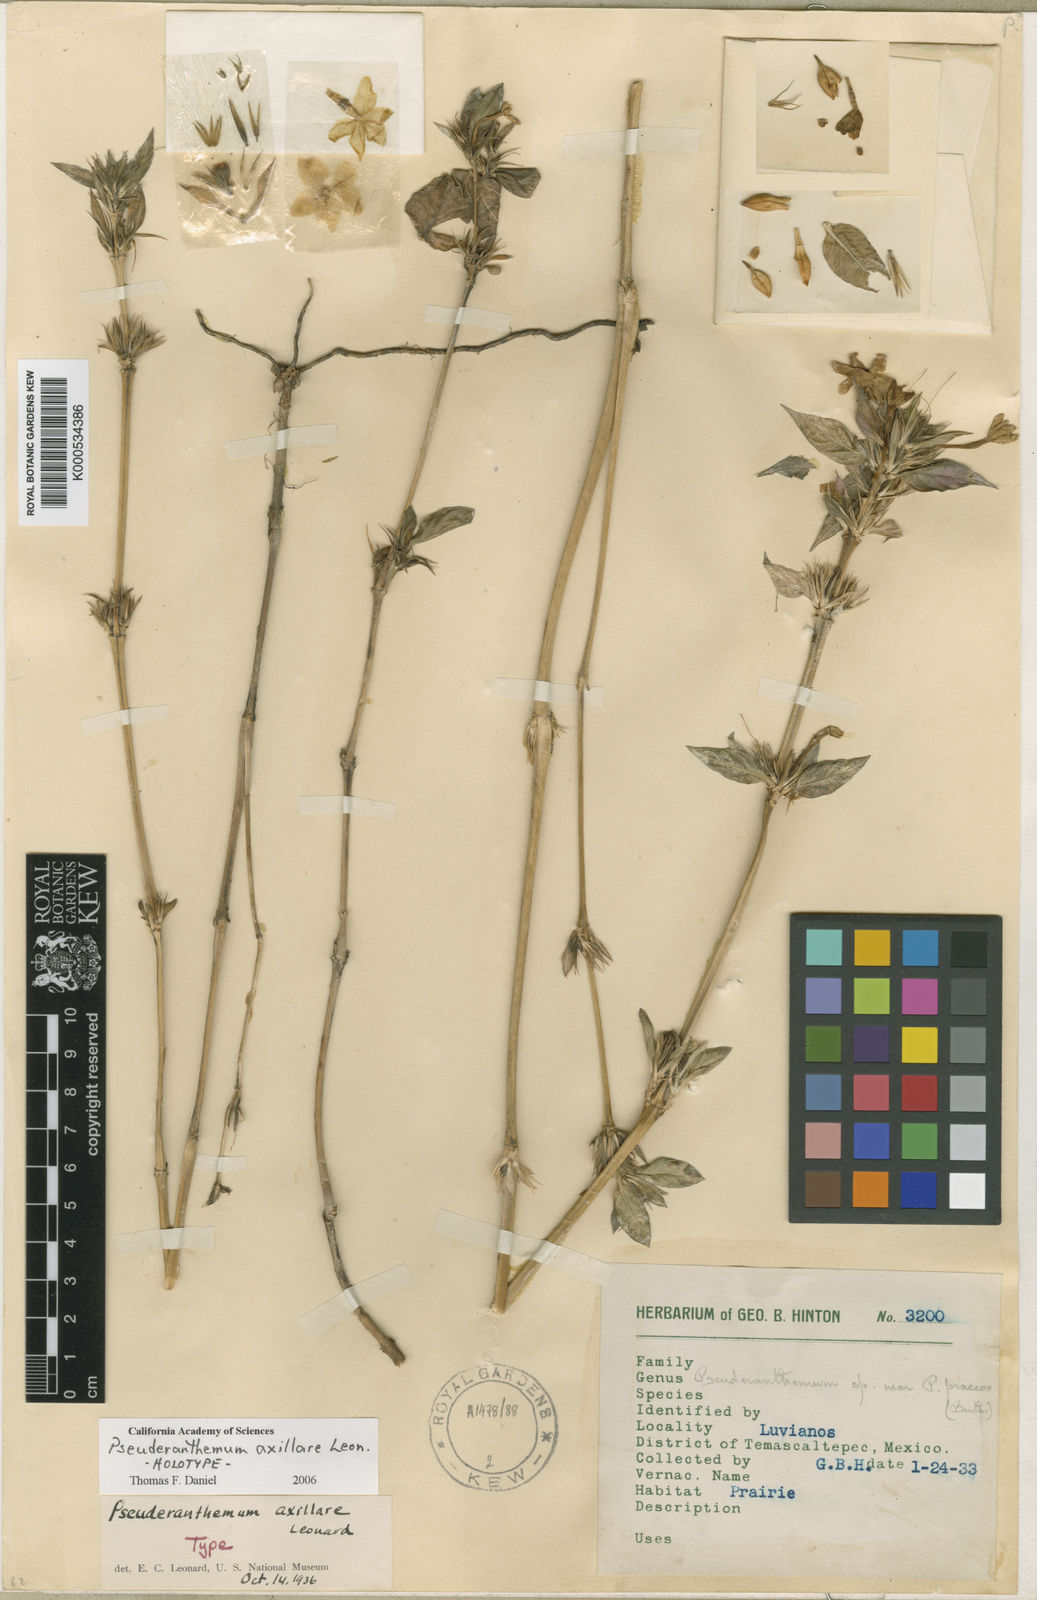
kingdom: Plantae
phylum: Tracheophyta
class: Magnoliopsida
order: Lamiales
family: Acanthaceae
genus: Pseuderanthemum
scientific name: Pseuderanthemum praecox
